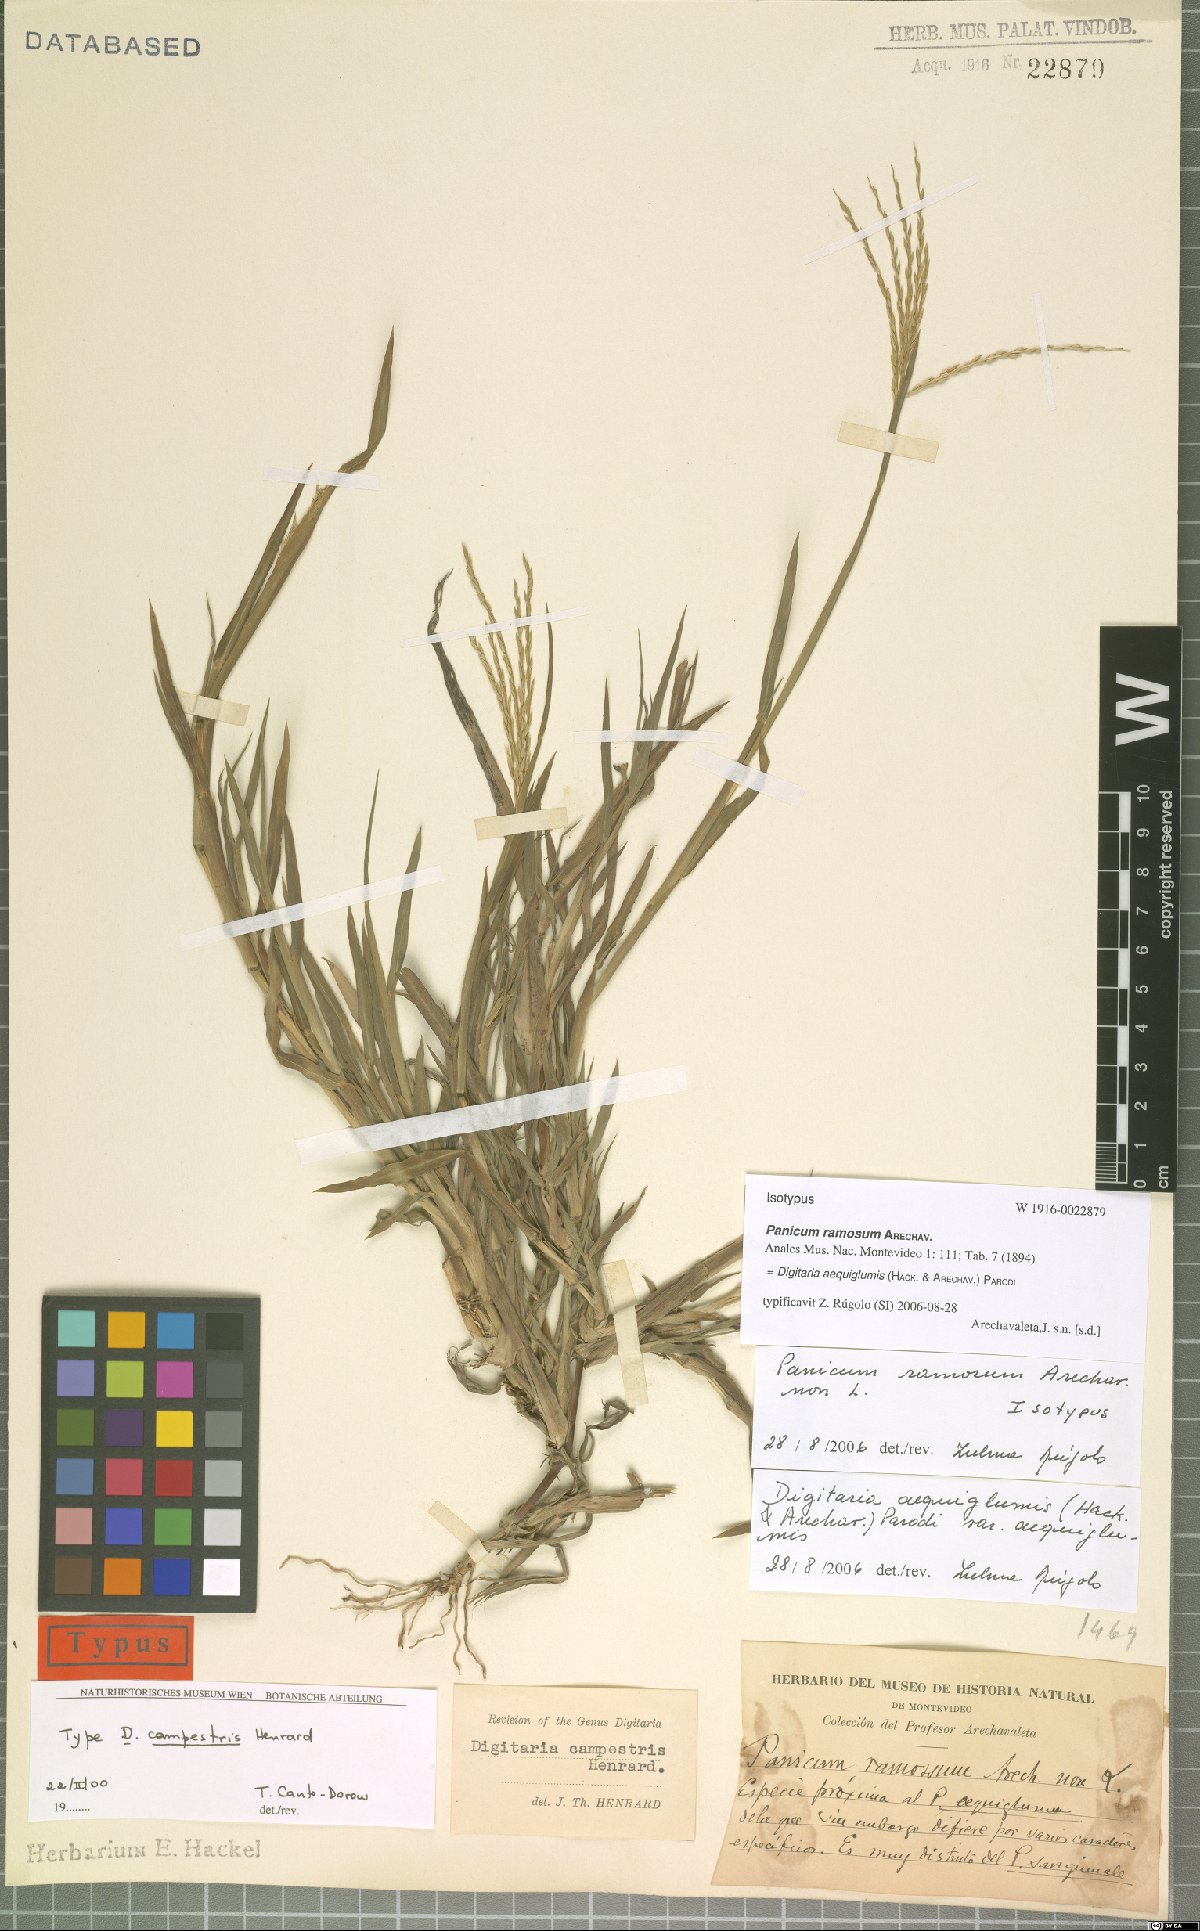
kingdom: Plantae
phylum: Tracheophyta
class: Liliopsida
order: Poales
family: Poaceae
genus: Digitaria
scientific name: Digitaria aequiglumis
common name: Argentinian crabgrass
